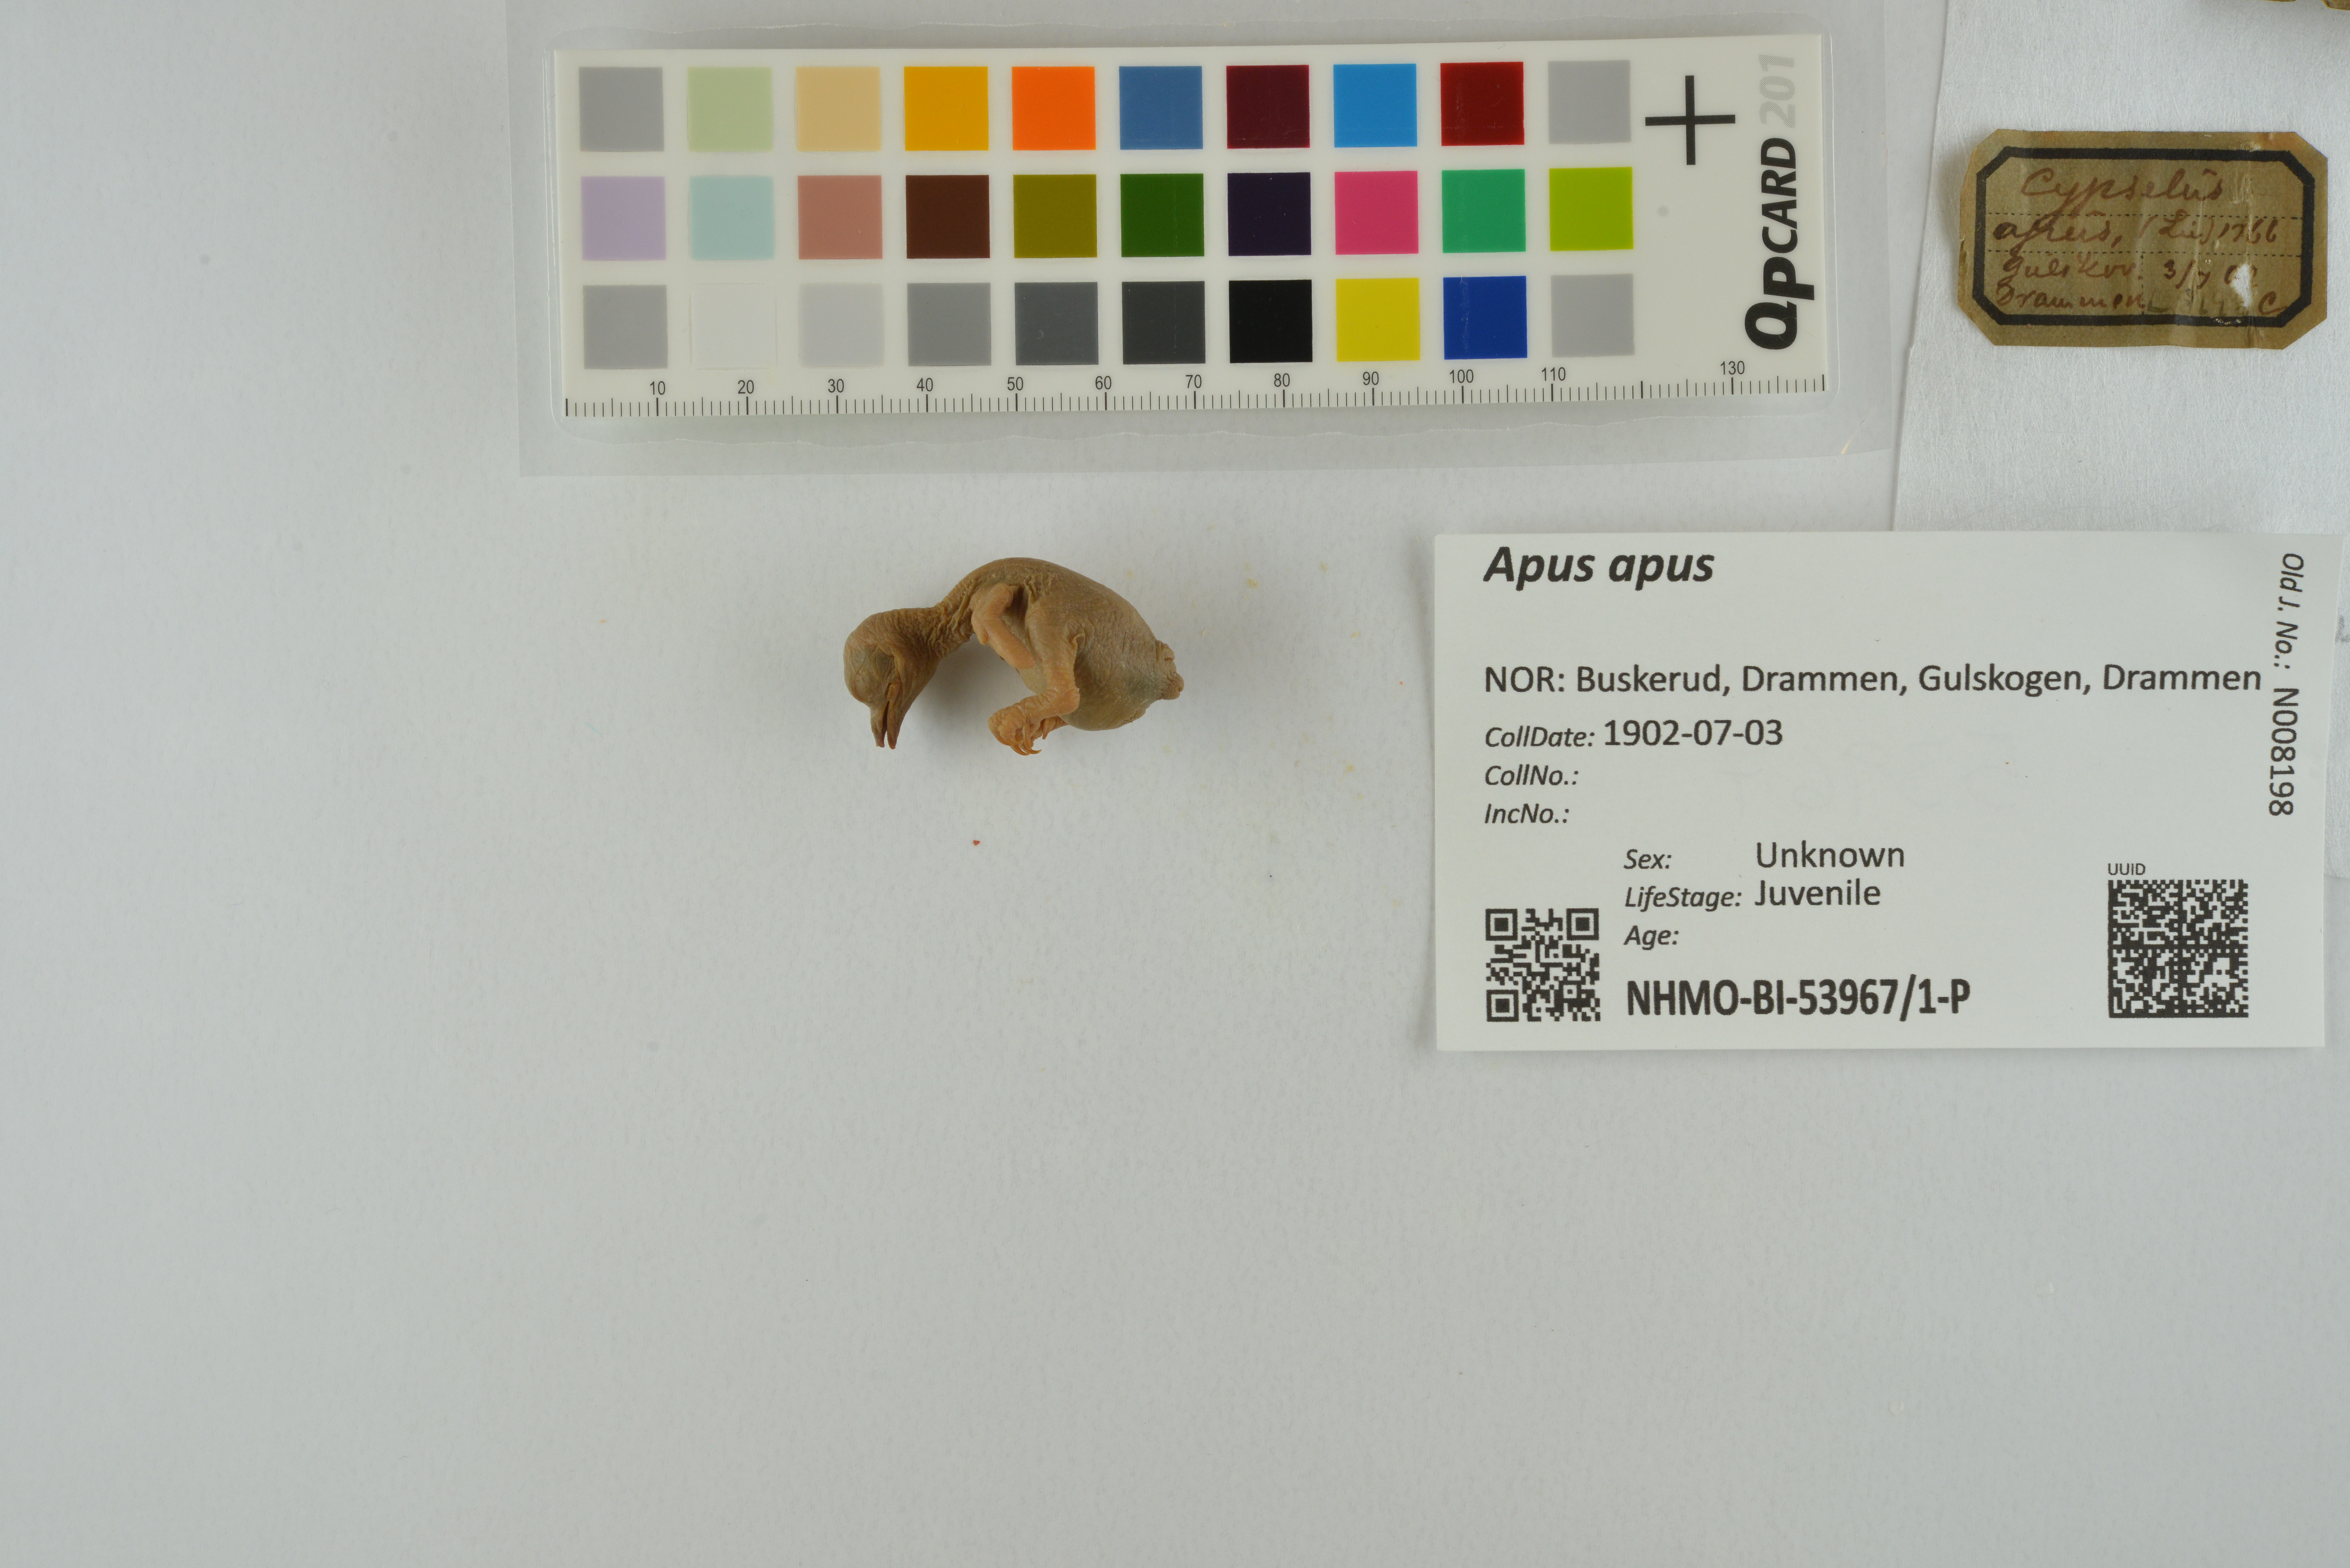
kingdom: Animalia
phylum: Chordata
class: Aves
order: Apodiformes
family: Apodidae
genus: Apus
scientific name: Apus apus
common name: Common swift
